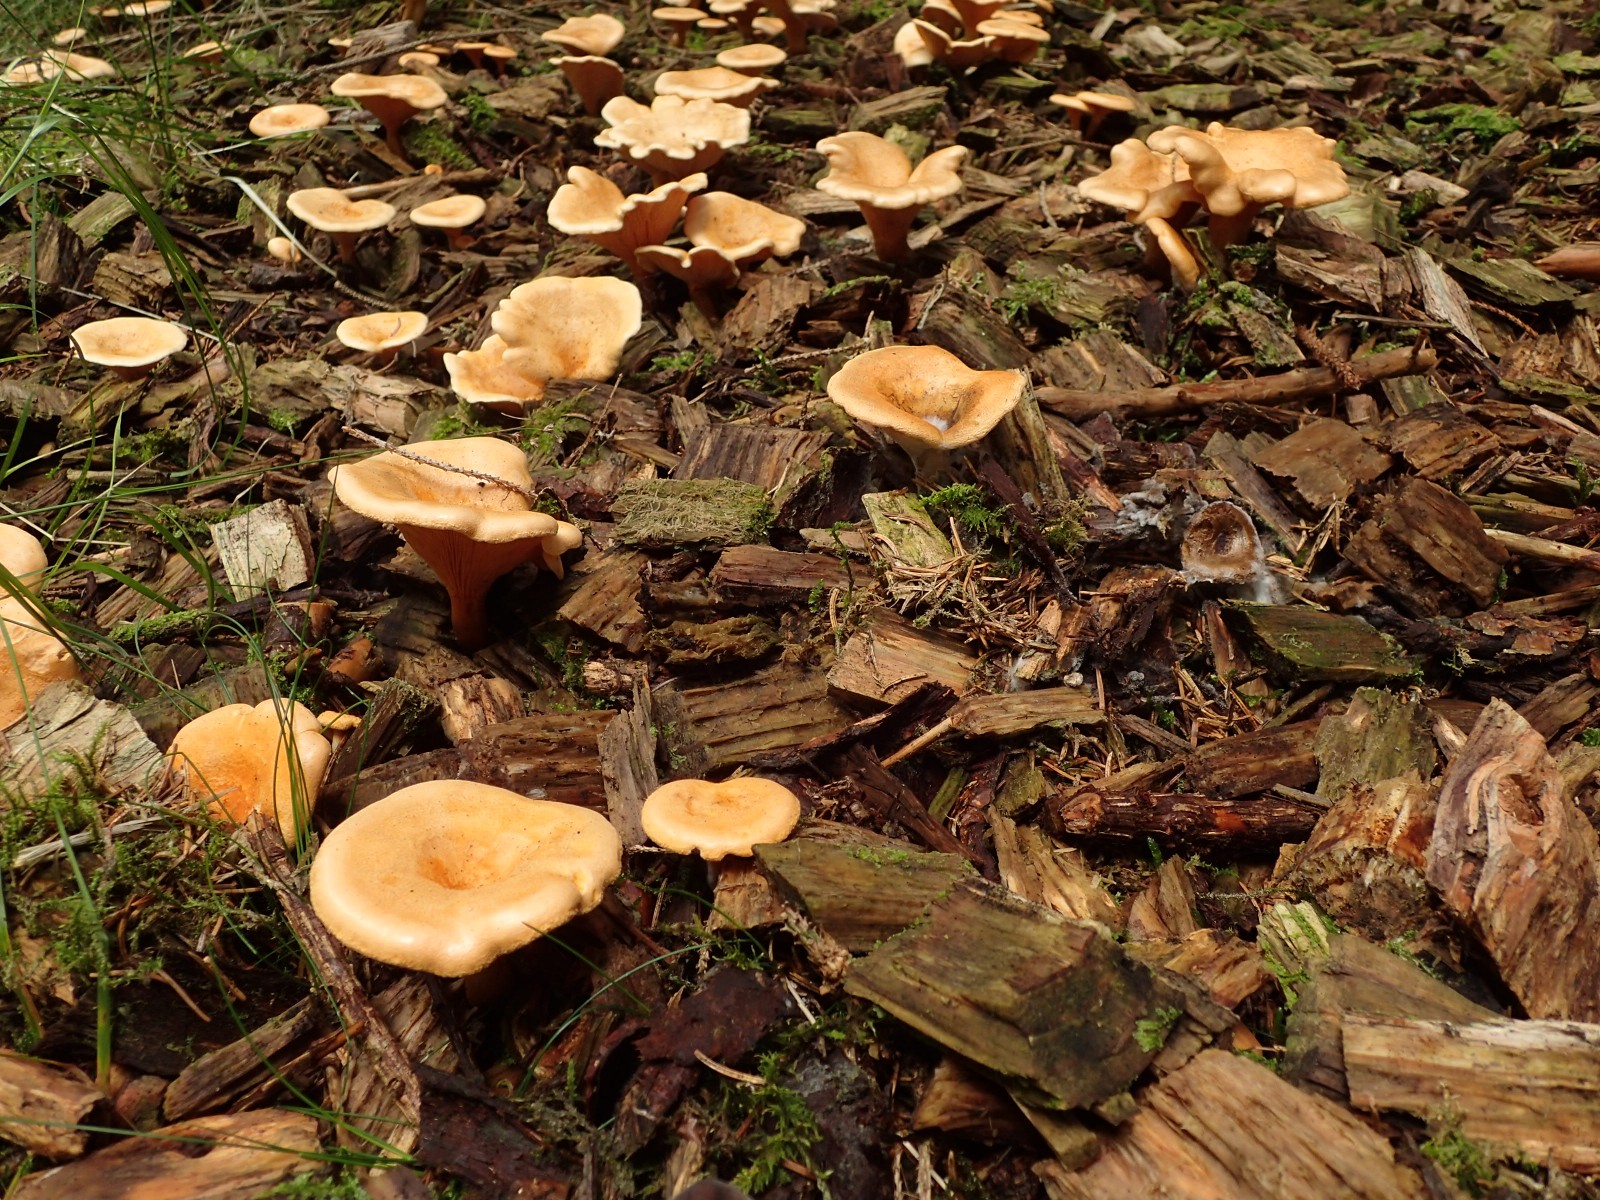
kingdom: Fungi
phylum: Basidiomycota
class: Agaricomycetes
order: Boletales
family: Hygrophoropsidaceae
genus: Hygrophoropsis
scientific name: Hygrophoropsis aurantiaca
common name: almindelig orangekantarel
